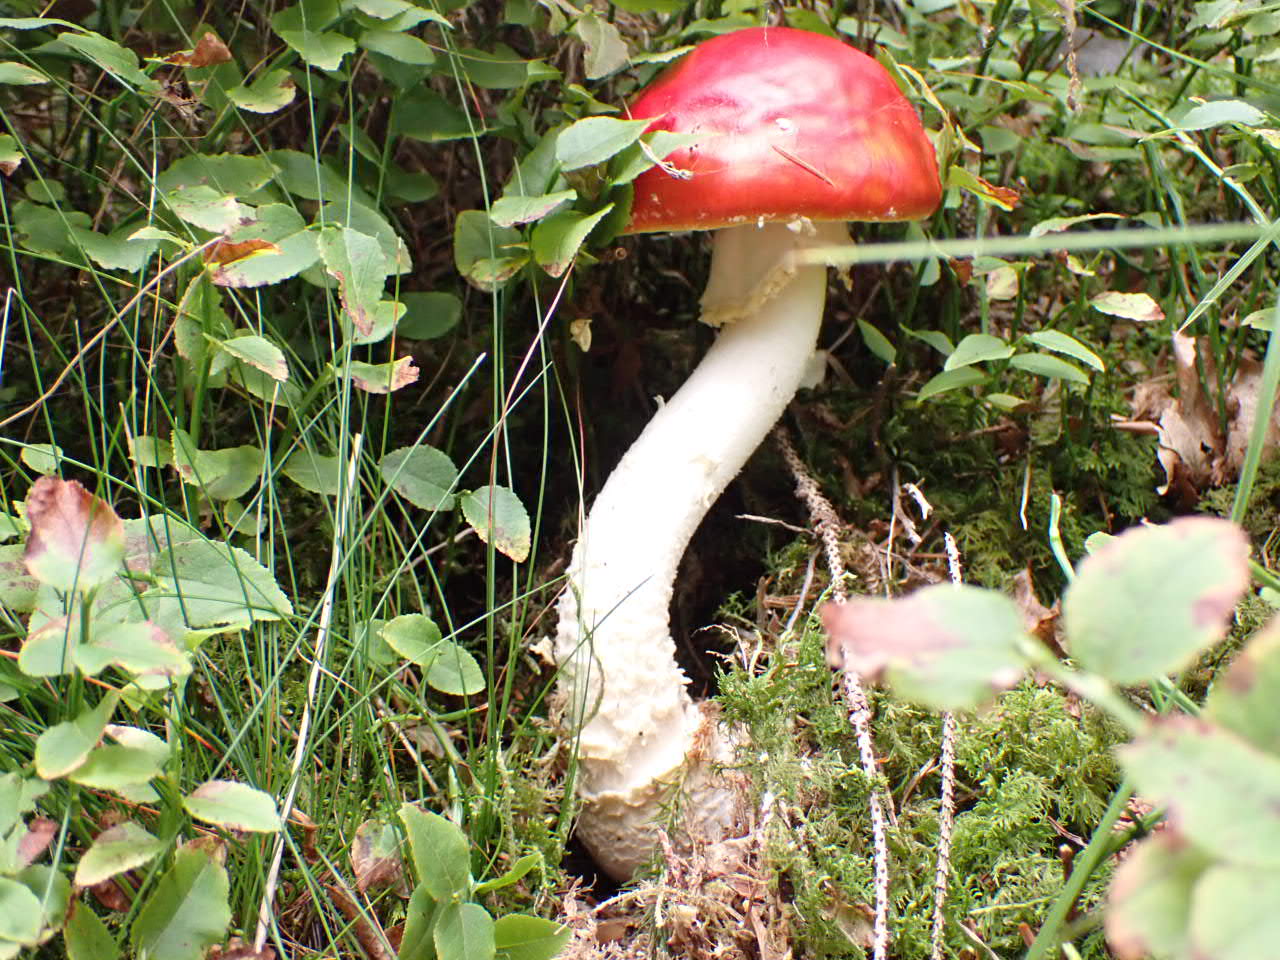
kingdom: Fungi
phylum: Basidiomycota
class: Agaricomycetes
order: Agaricales
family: Amanitaceae
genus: Amanita
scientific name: Amanita muscaria
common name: rød fluesvamp
